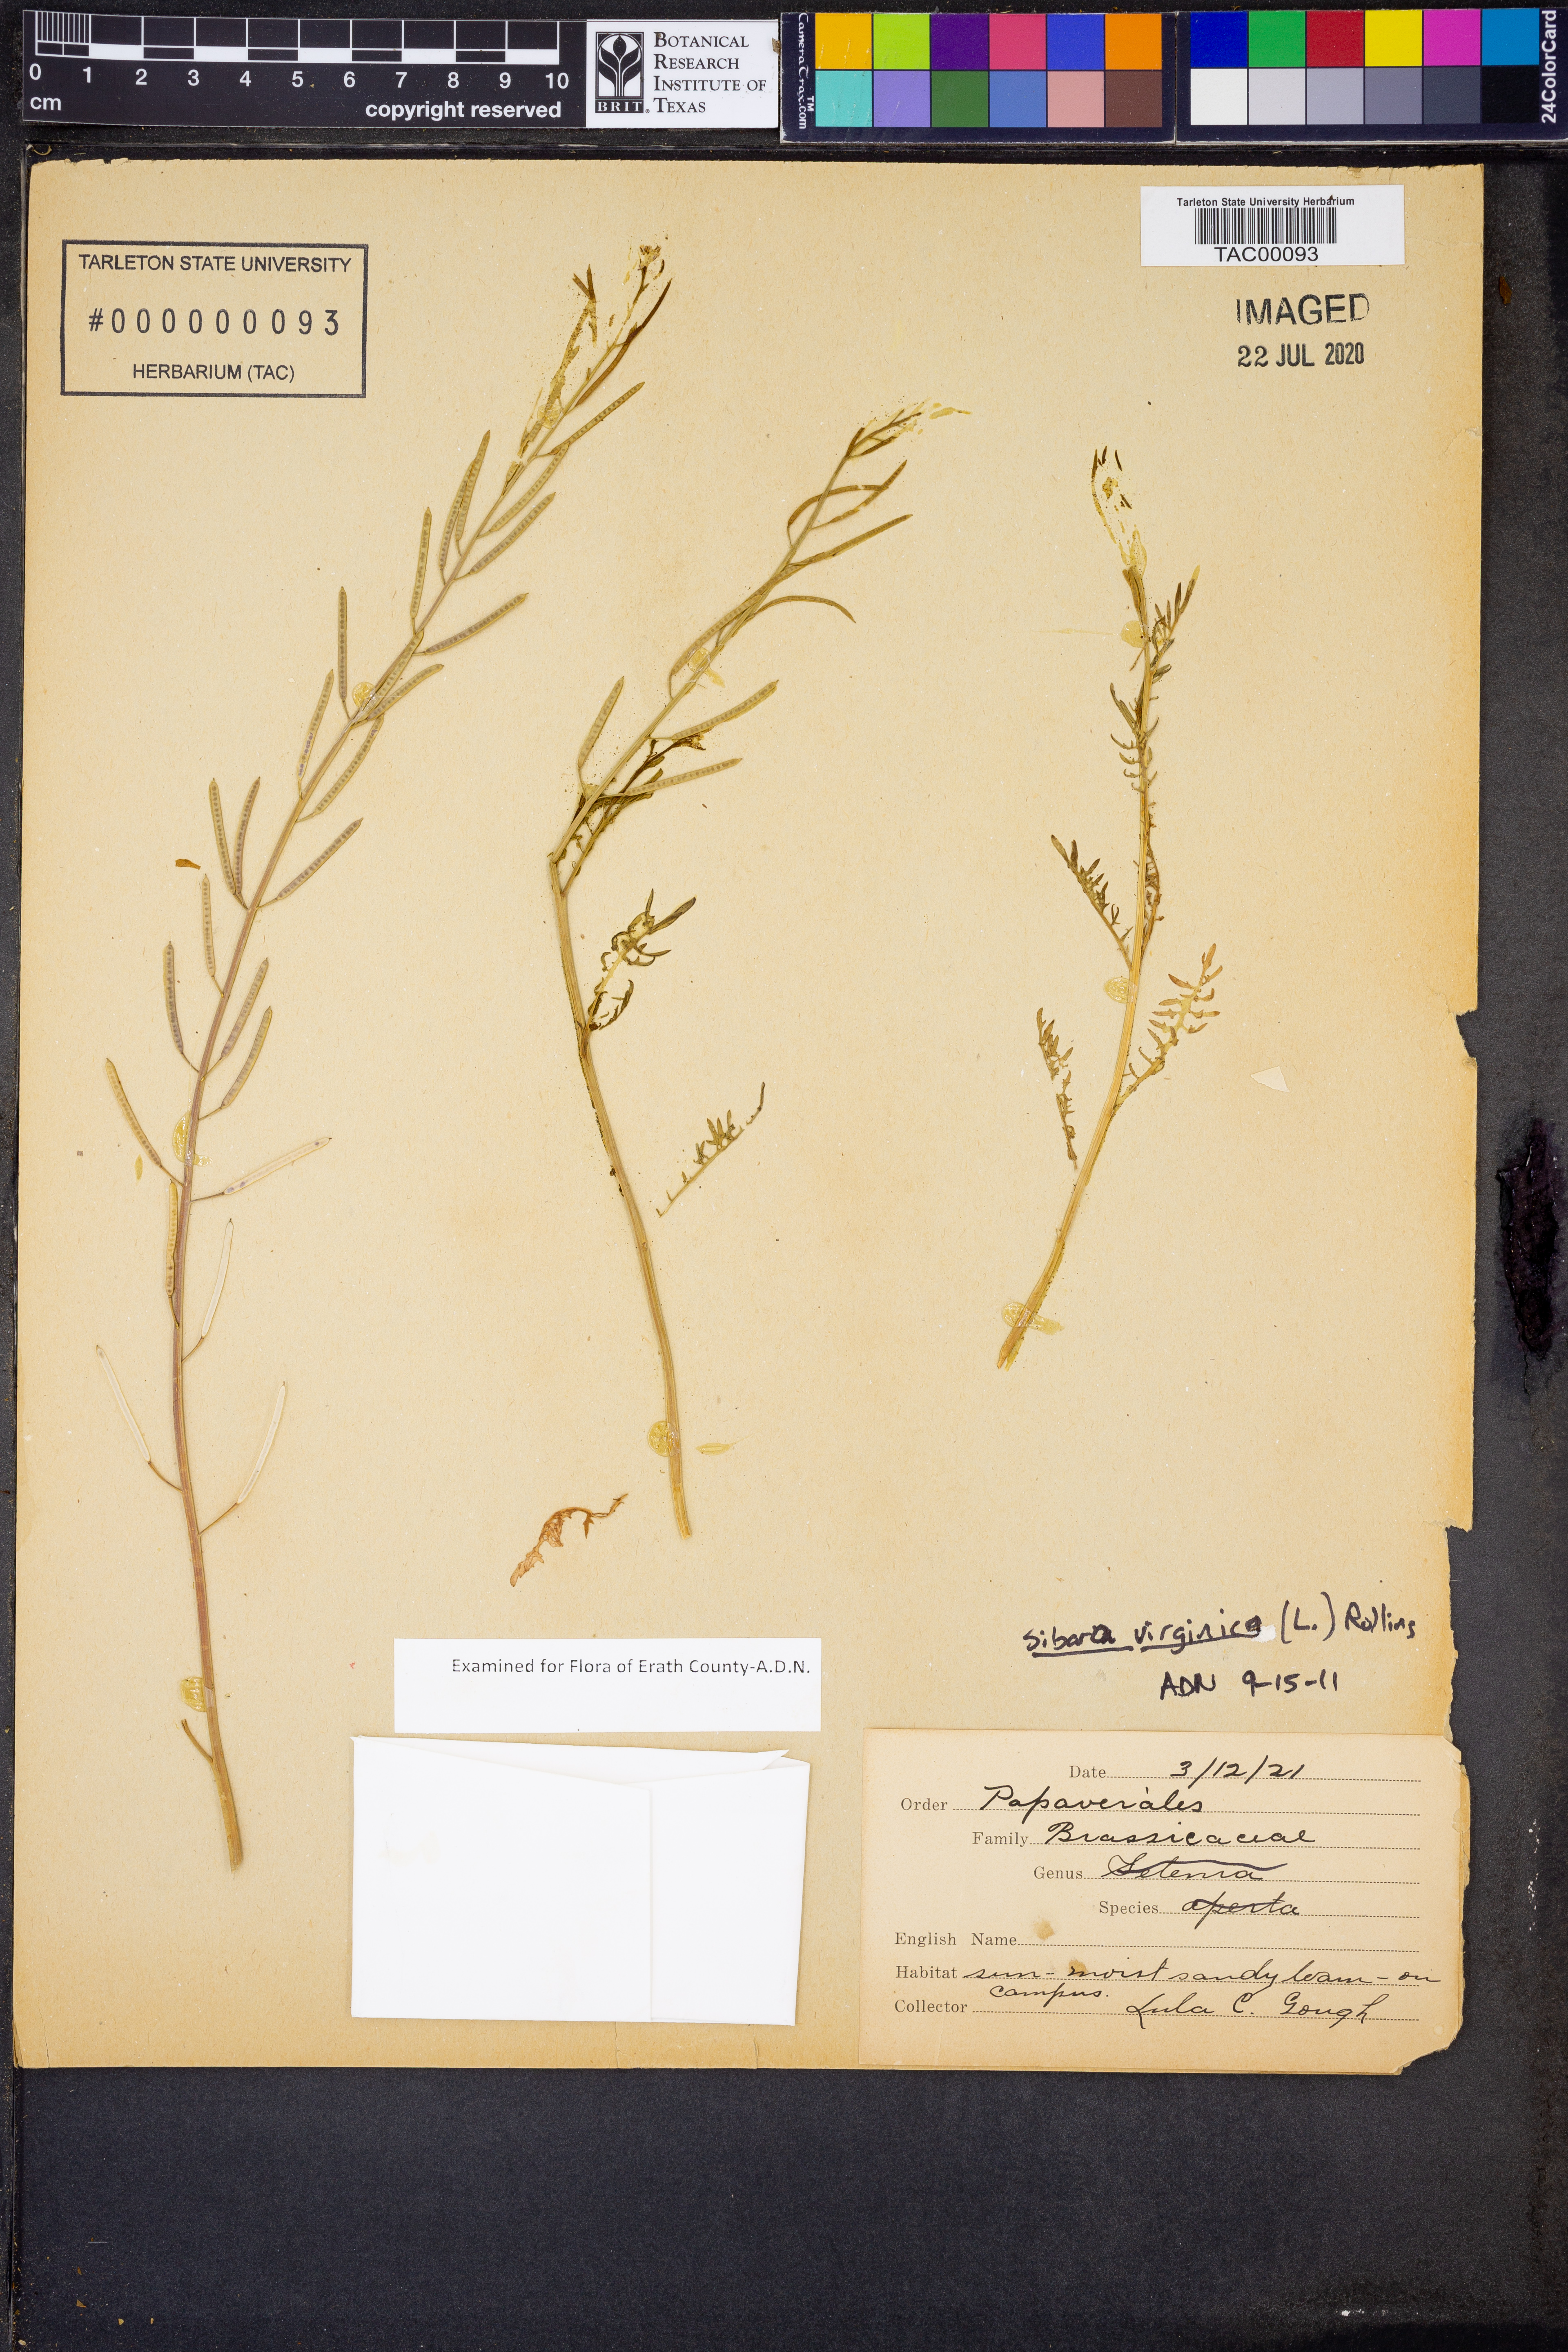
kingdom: Plantae
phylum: Tracheophyta
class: Magnoliopsida
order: Brassicales
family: Brassicaceae
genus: Planodes
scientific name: Planodes virginicum
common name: Virginia cress
